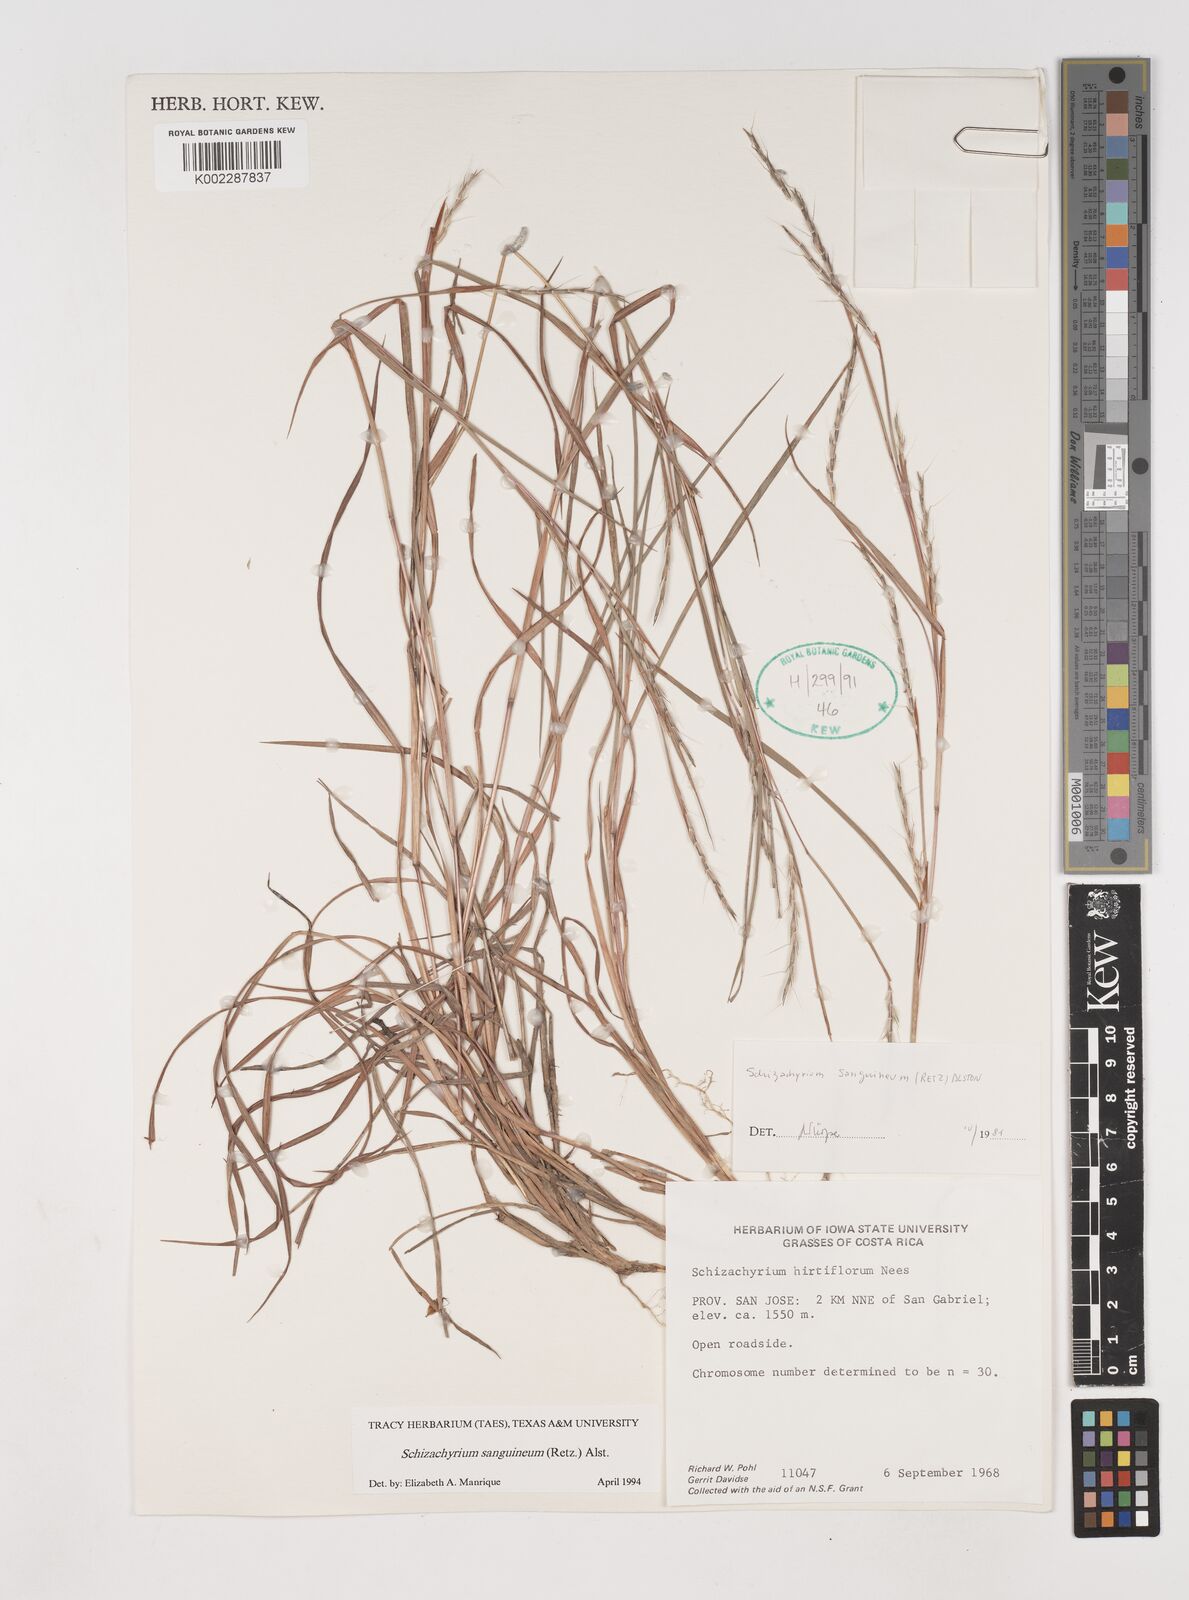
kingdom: Plantae
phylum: Tracheophyta
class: Liliopsida
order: Poales
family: Poaceae
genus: Schizachyrium
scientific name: Schizachyrium sanguineum
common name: Crimson bluestem
